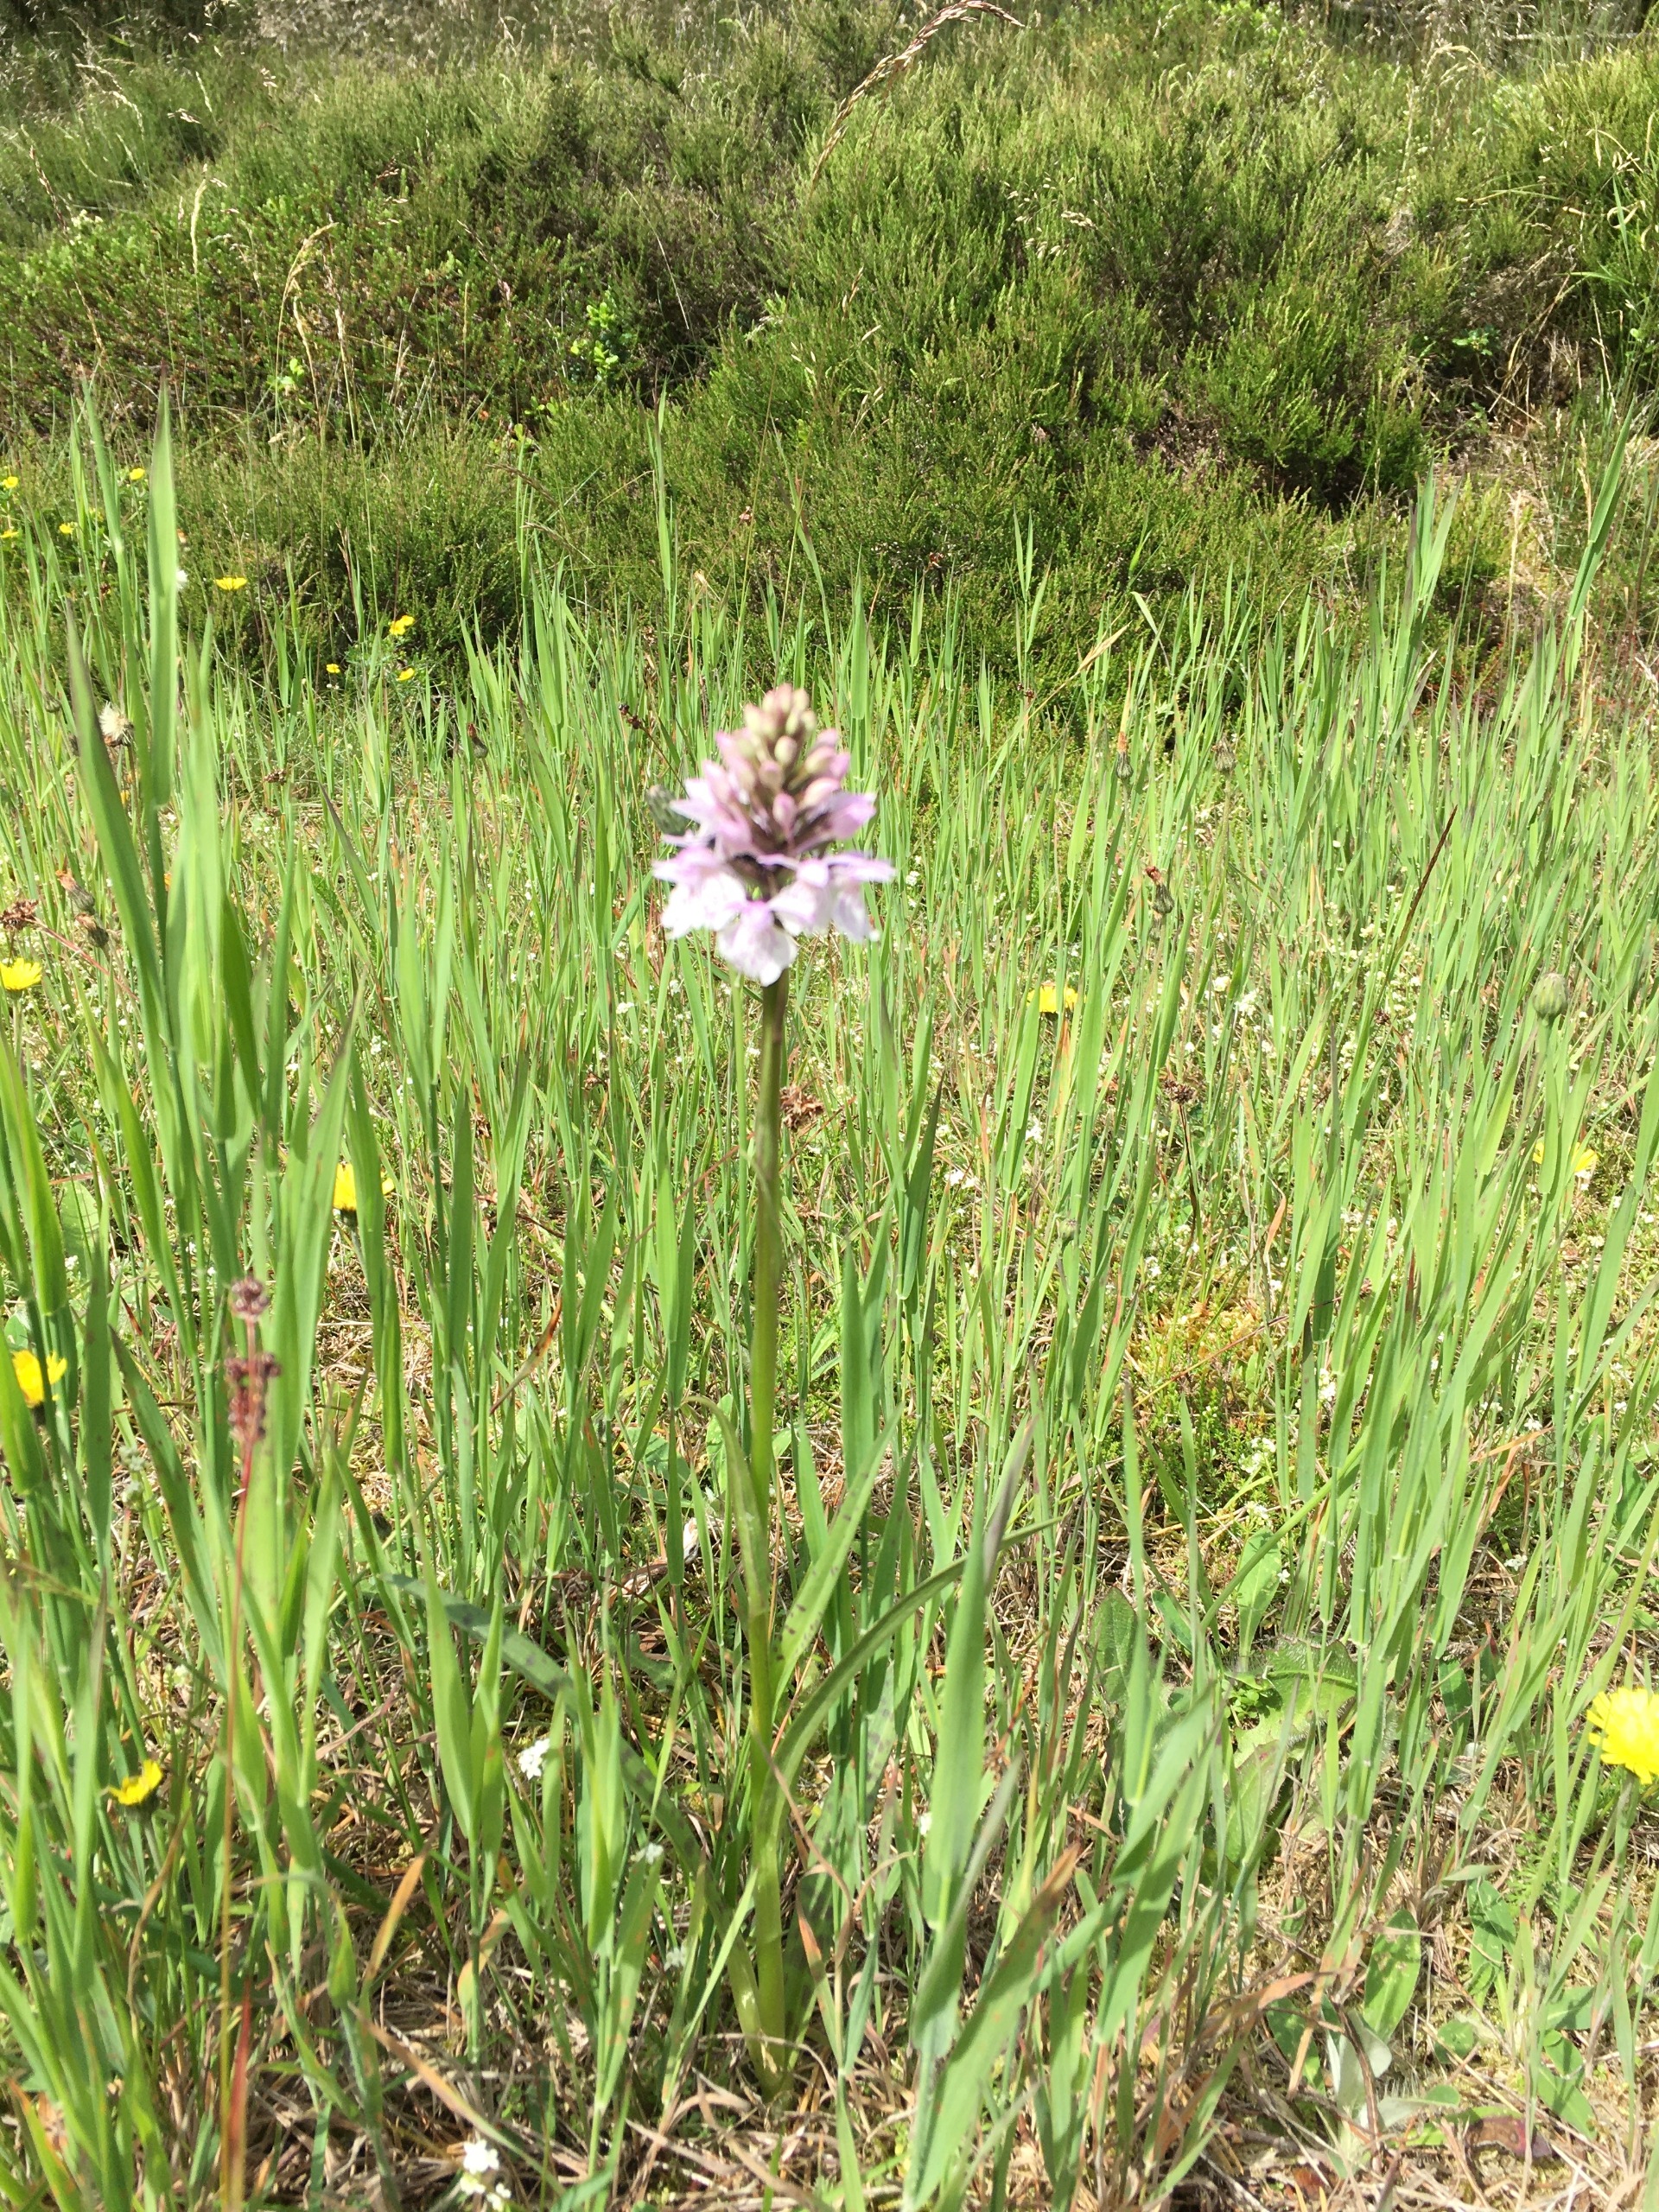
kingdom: Plantae
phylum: Tracheophyta
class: Liliopsida
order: Asparagales
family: Orchidaceae
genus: Dactylorhiza
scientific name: Dactylorhiza maculata
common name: Plettet gøgeurt
